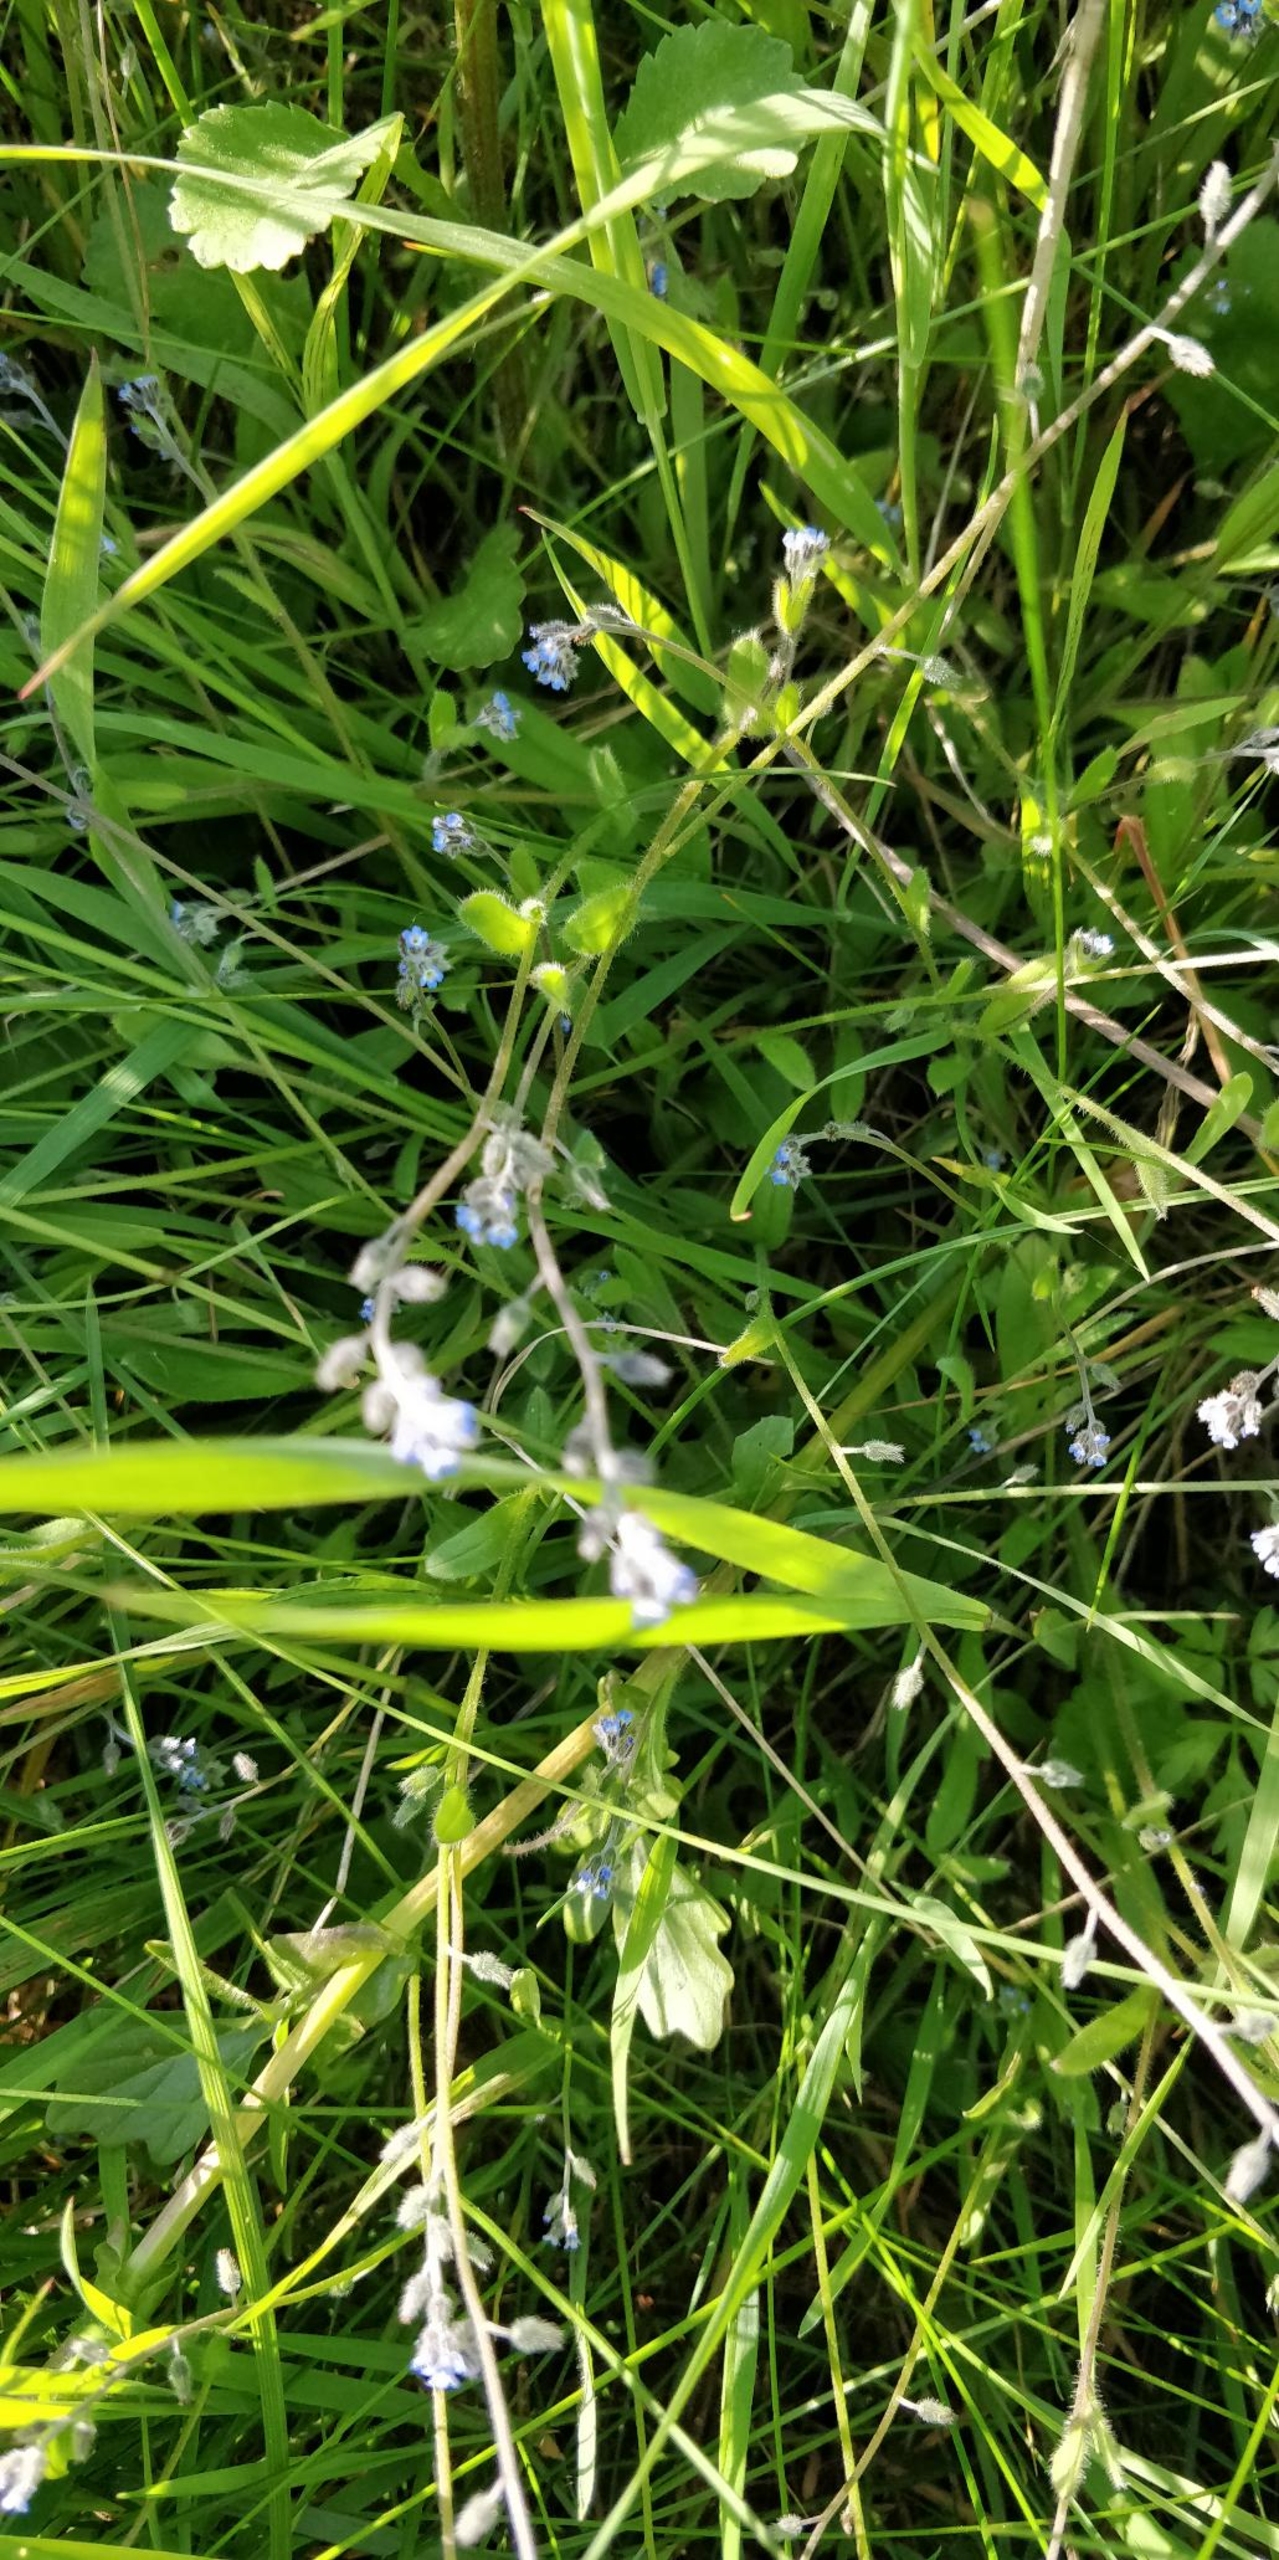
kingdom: Plantae
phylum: Tracheophyta
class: Magnoliopsida
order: Boraginales
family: Boraginaceae
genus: Myosotis
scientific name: Myosotis ramosissima
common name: Bakke-forglemmigej
